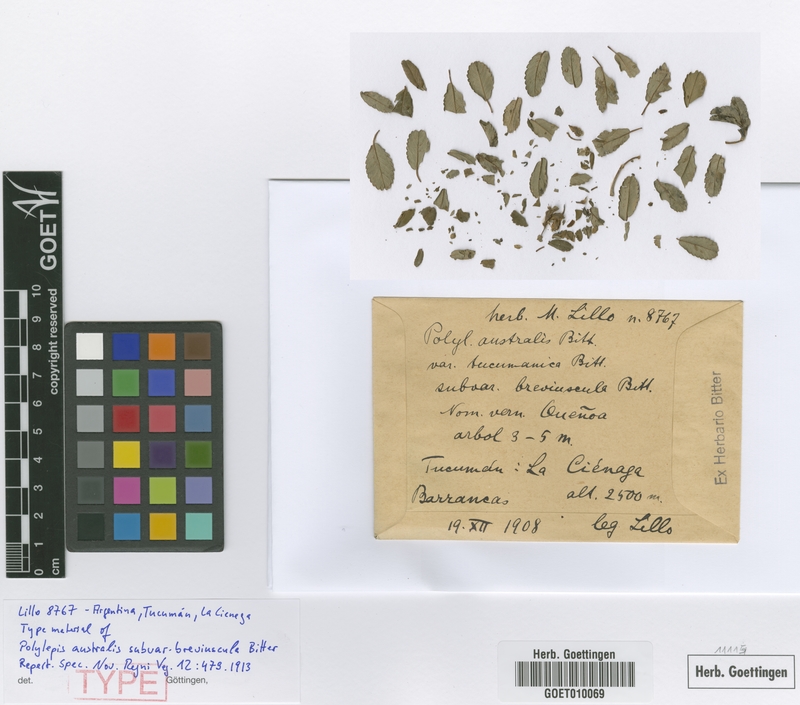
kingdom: Plantae
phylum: Tracheophyta
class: Magnoliopsida
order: Rosales
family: Rosaceae
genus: Polylepis
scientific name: Polylepis australis
